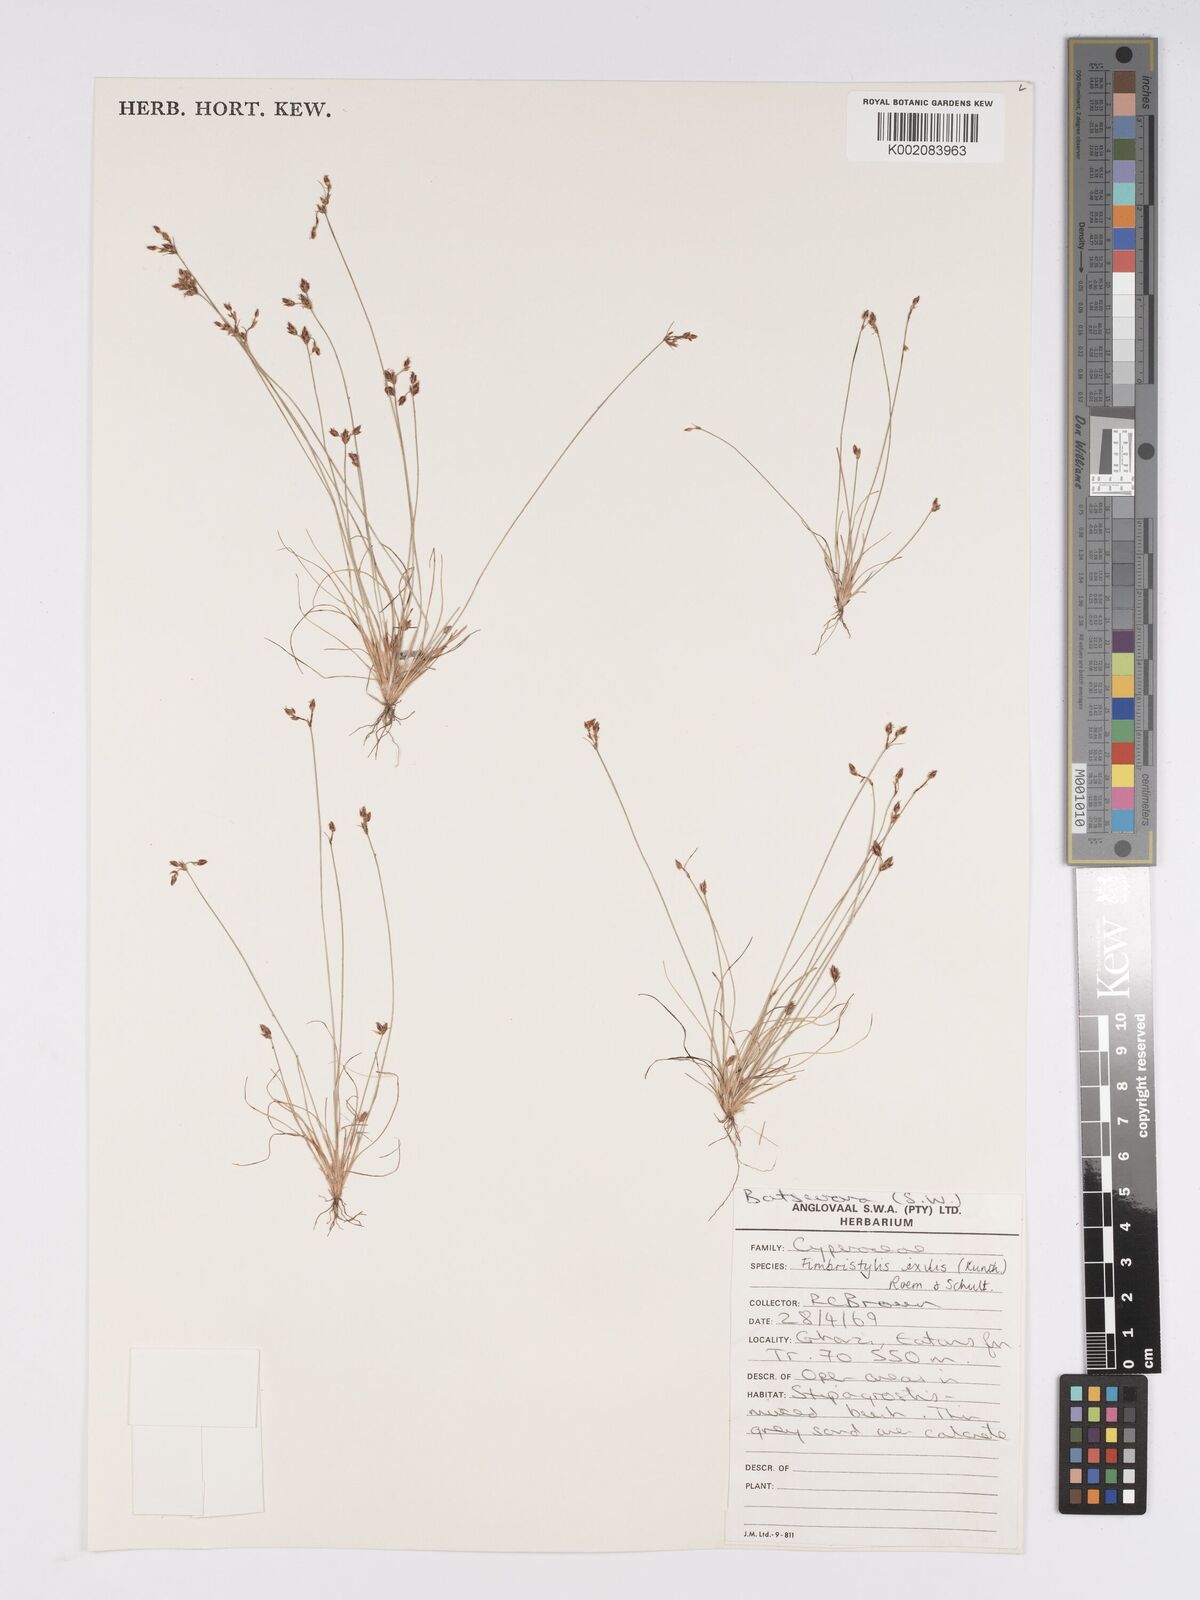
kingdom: Plantae
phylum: Tracheophyta
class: Liliopsida
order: Poales
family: Cyperaceae
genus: Bulbostylis
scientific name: Bulbostylis hispidula
